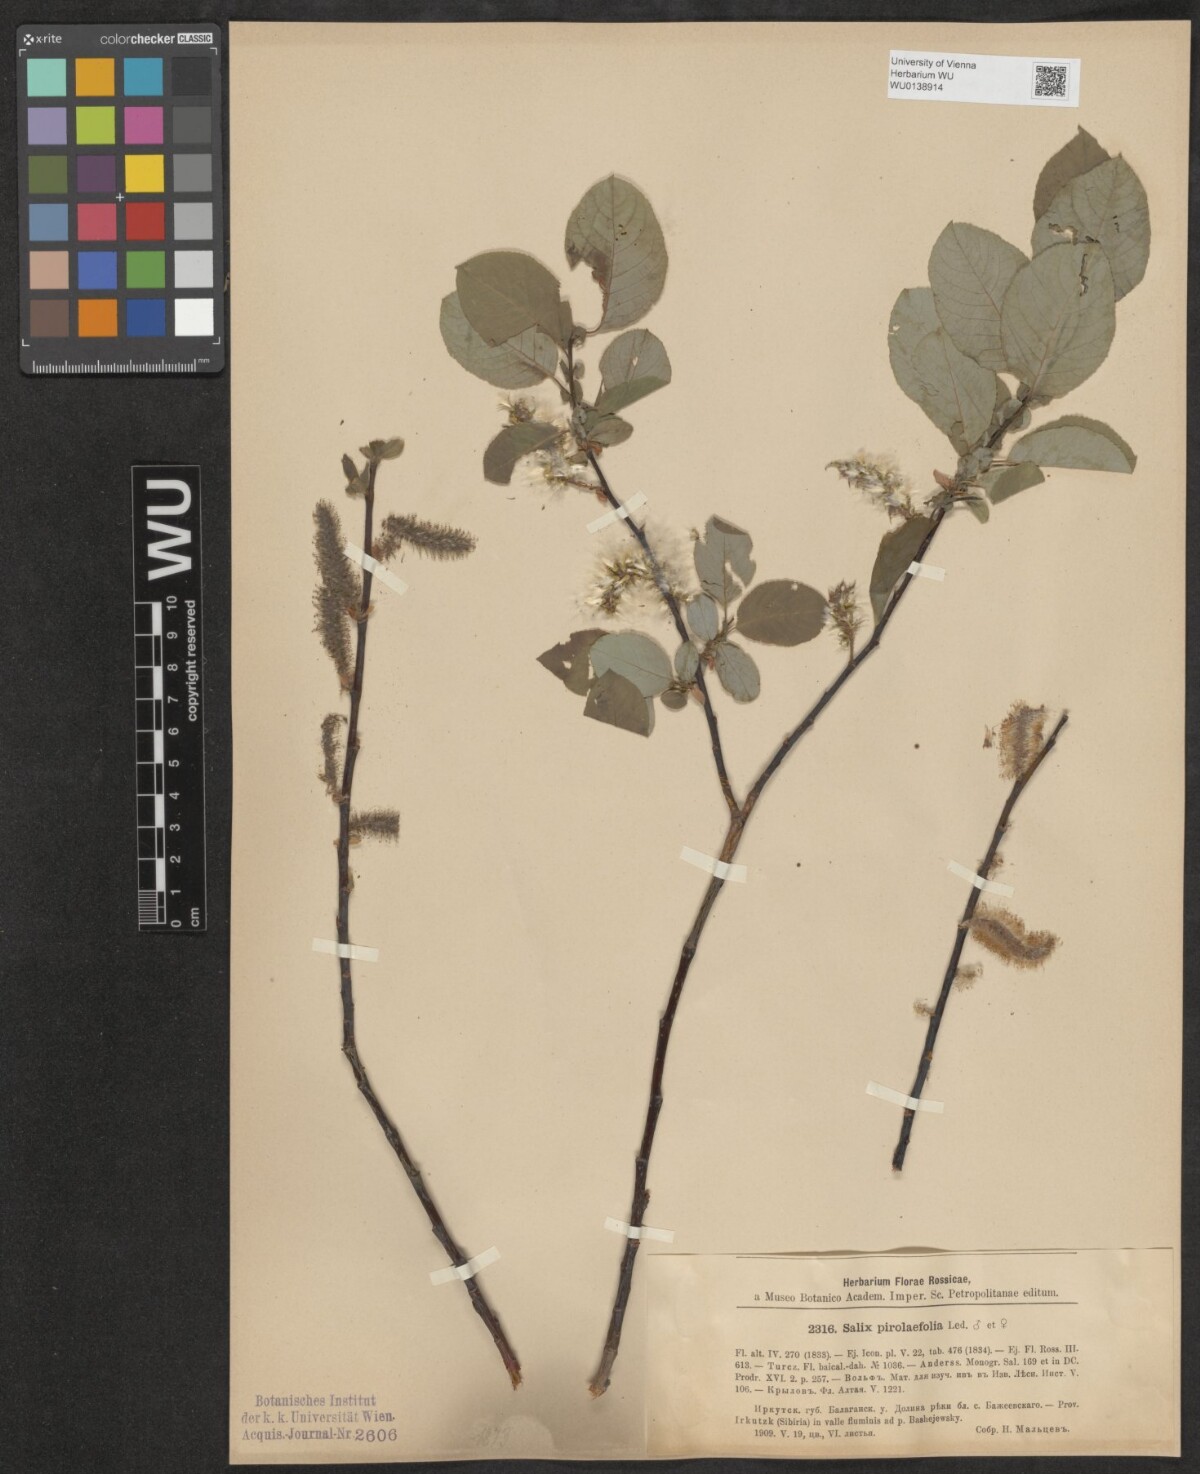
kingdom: Plantae
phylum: Tracheophyta
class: Magnoliopsida
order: Malpighiales
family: Salicaceae
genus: Salix
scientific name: Salix pyrolifolia
